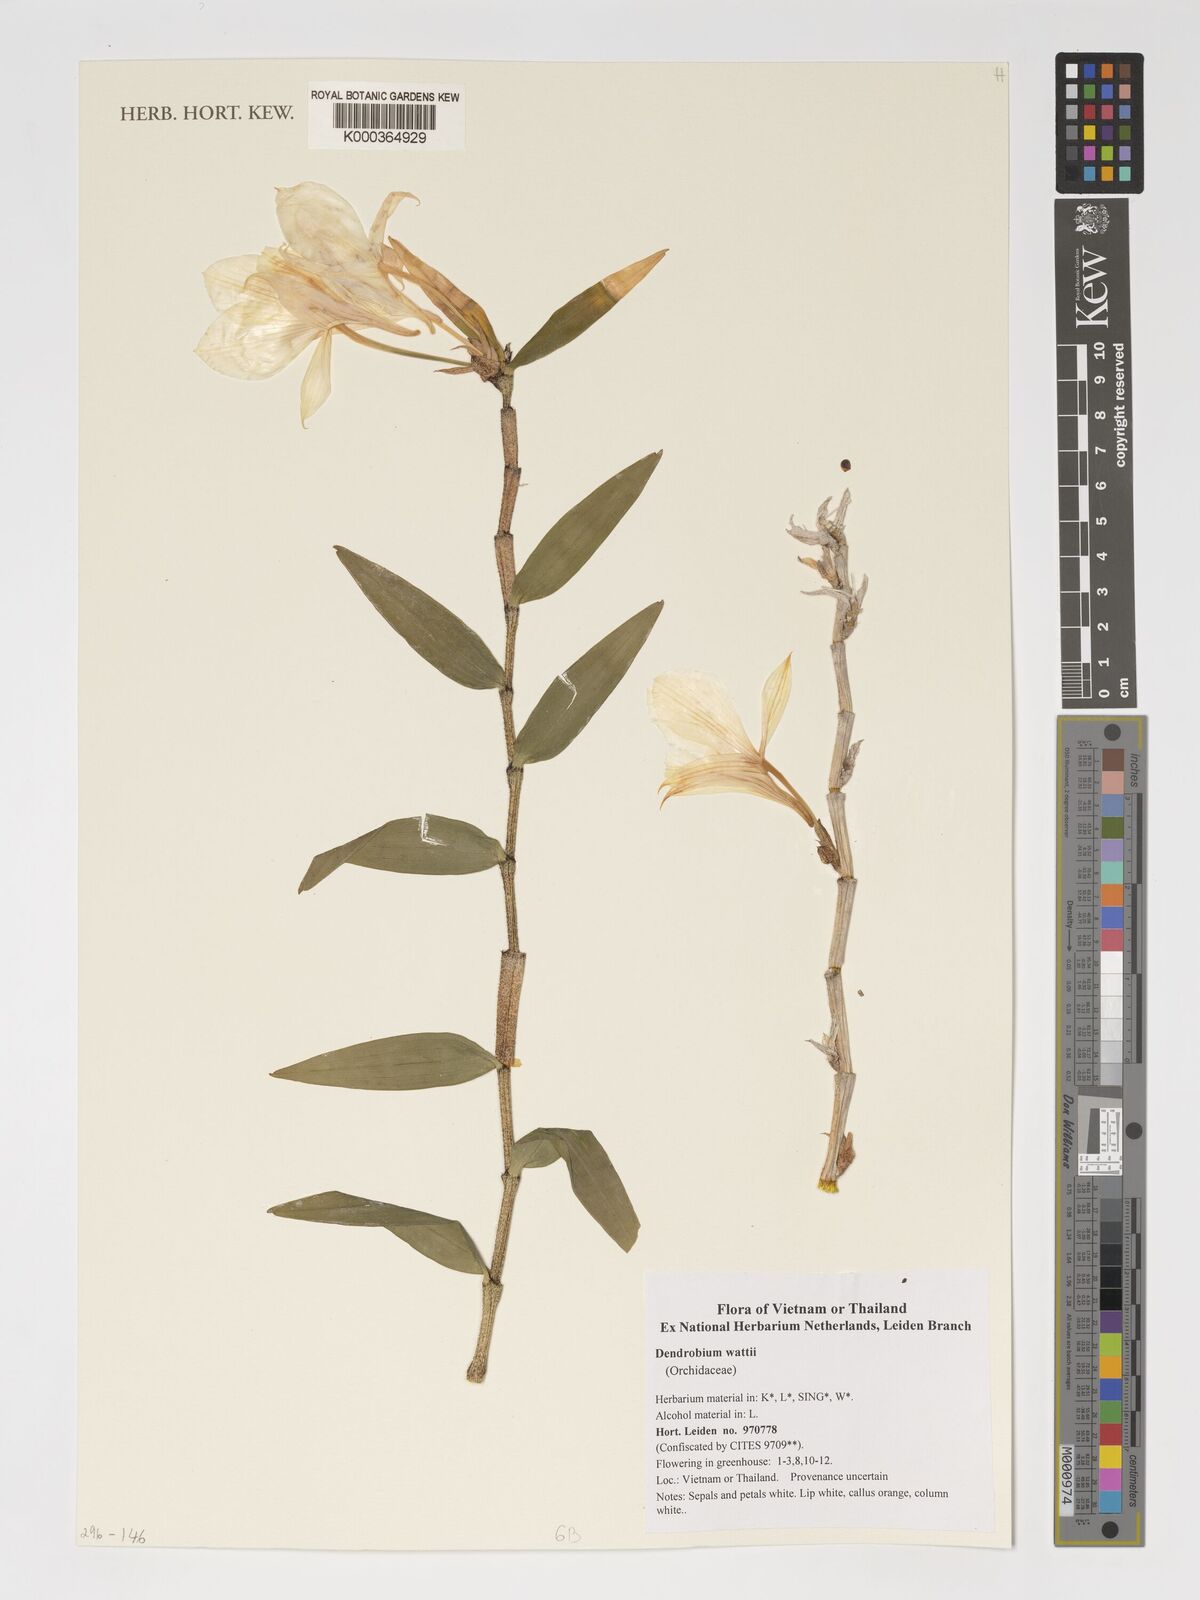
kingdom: Plantae
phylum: Tracheophyta
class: Liliopsida
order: Asparagales
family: Orchidaceae
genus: Dendrobium
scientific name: Dendrobium wattii
